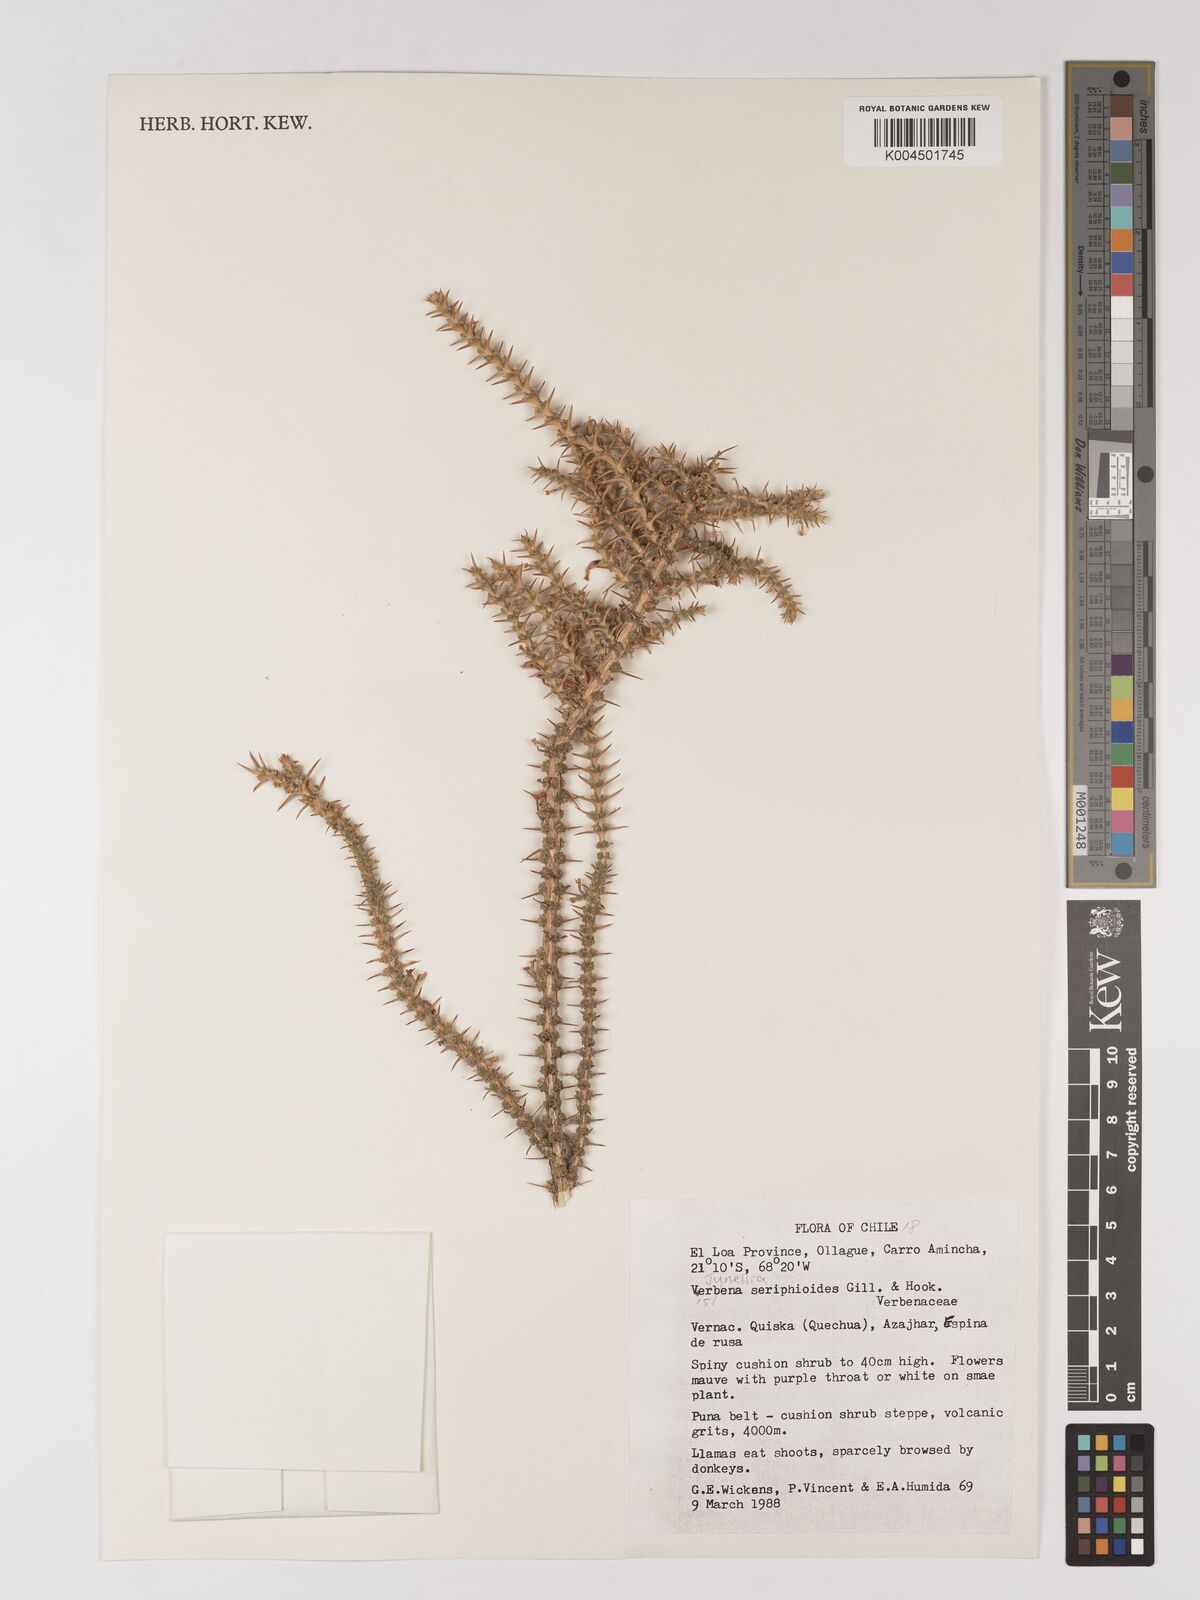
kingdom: Plantae
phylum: Tracheophyta
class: Magnoliopsida
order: Lamiales
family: Verbenaceae
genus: Junellia
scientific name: Junellia seriphioides
